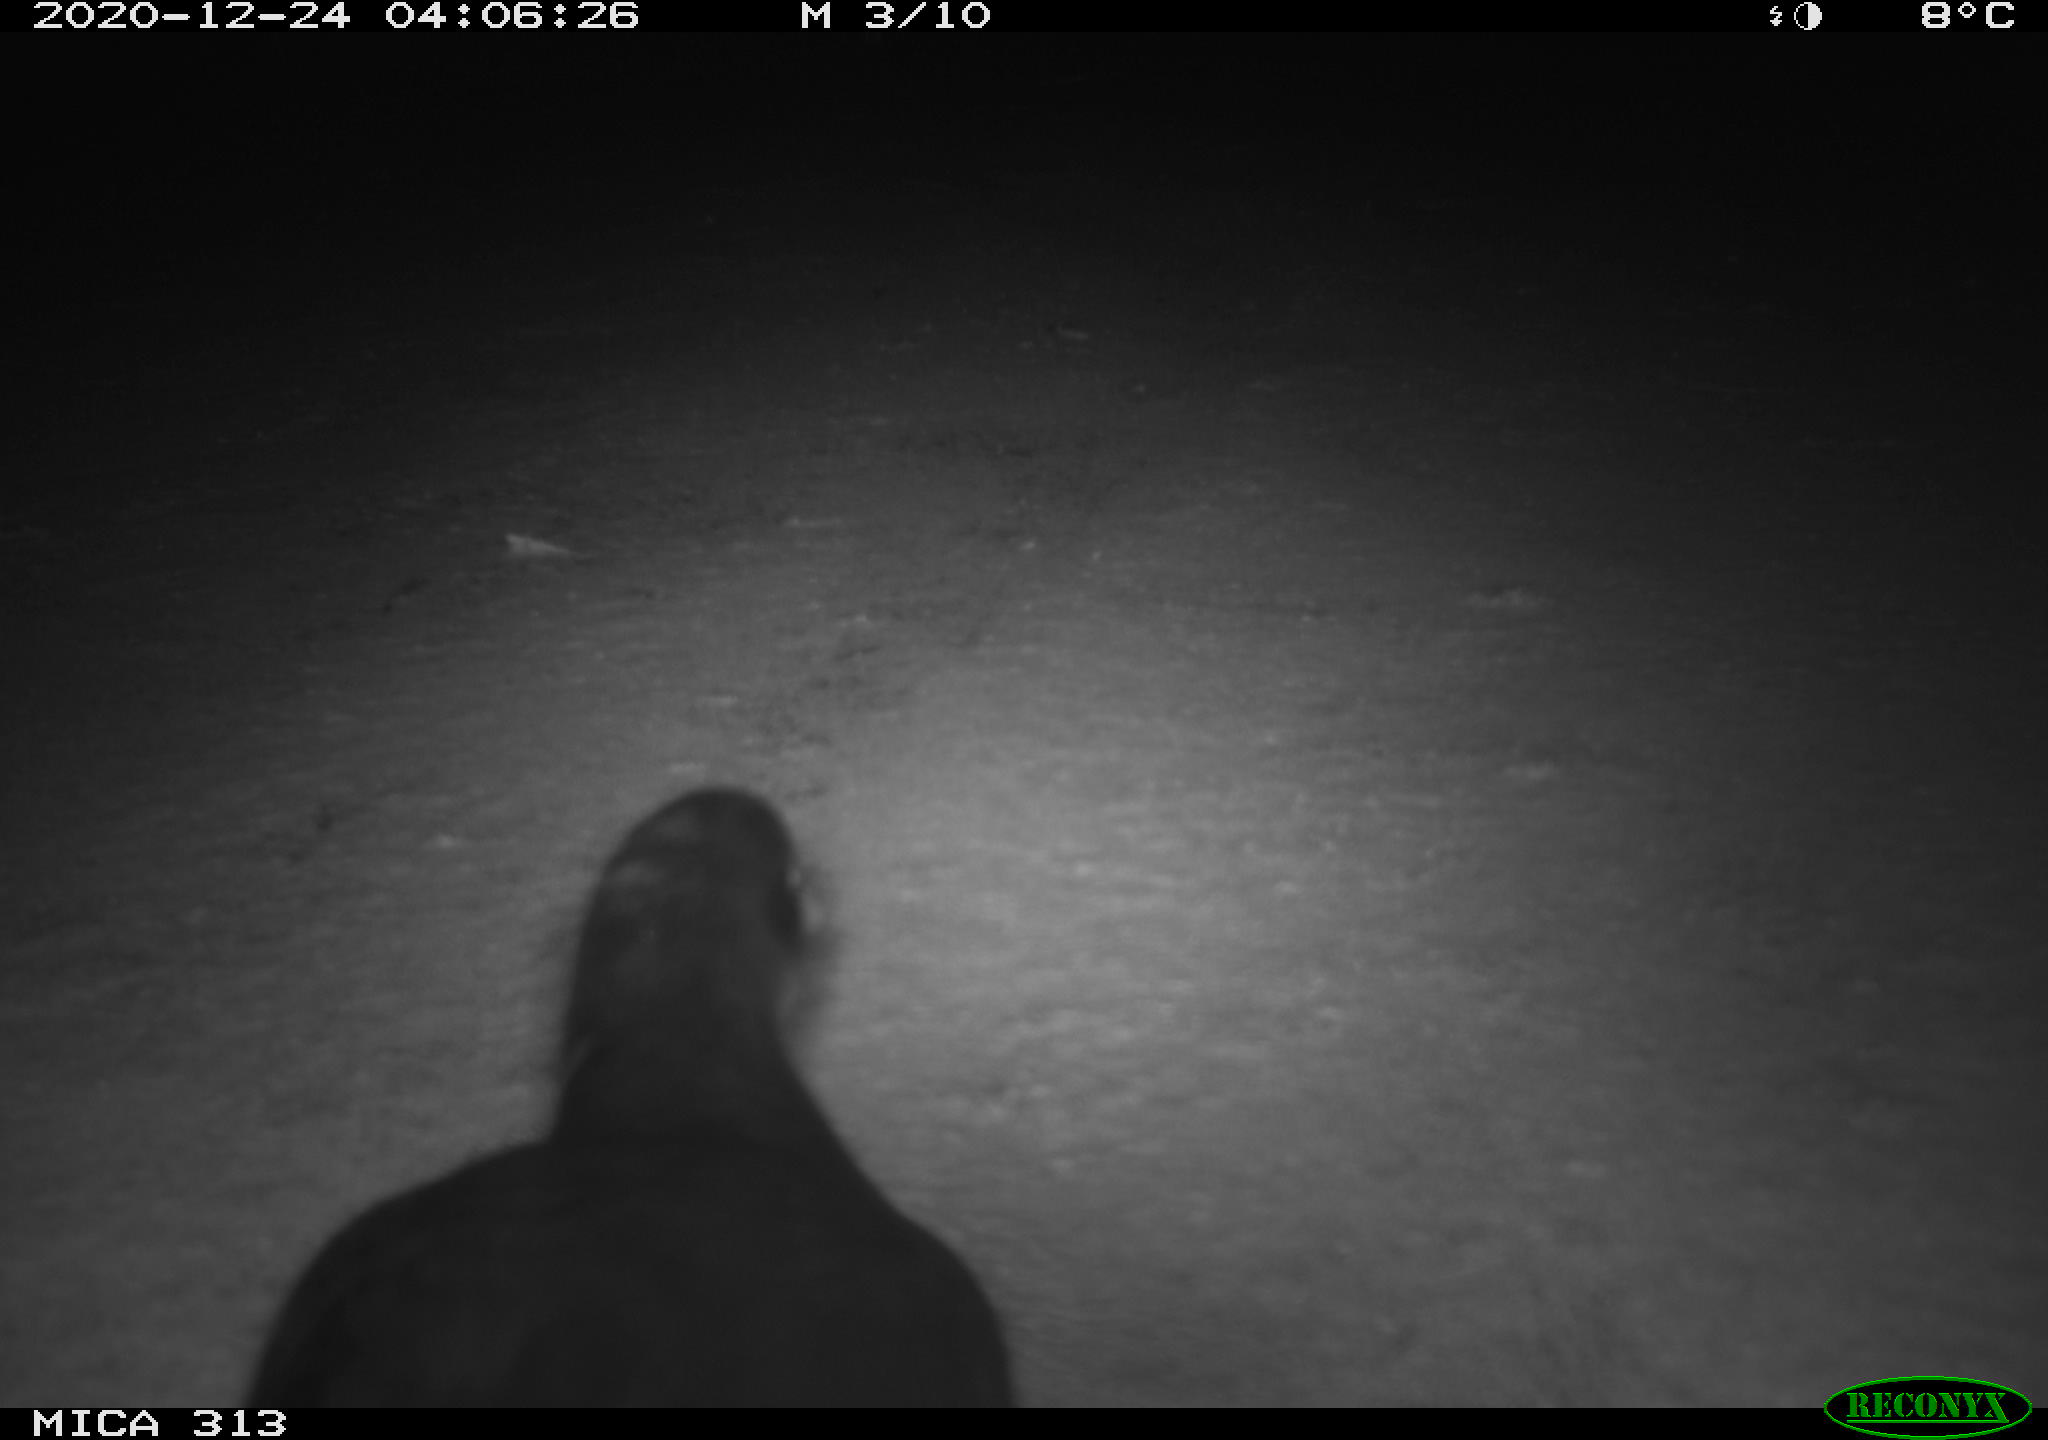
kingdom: Animalia
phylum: Chordata
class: Aves
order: Gruiformes
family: Rallidae
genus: Fulica
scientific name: Fulica atra
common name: Eurasian coot
